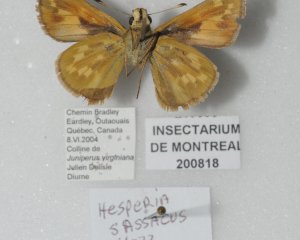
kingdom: Animalia
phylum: Arthropoda
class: Insecta
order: Lepidoptera
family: Hesperiidae
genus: Hesperia
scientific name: Hesperia sassacus
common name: Sassacus Skipper
